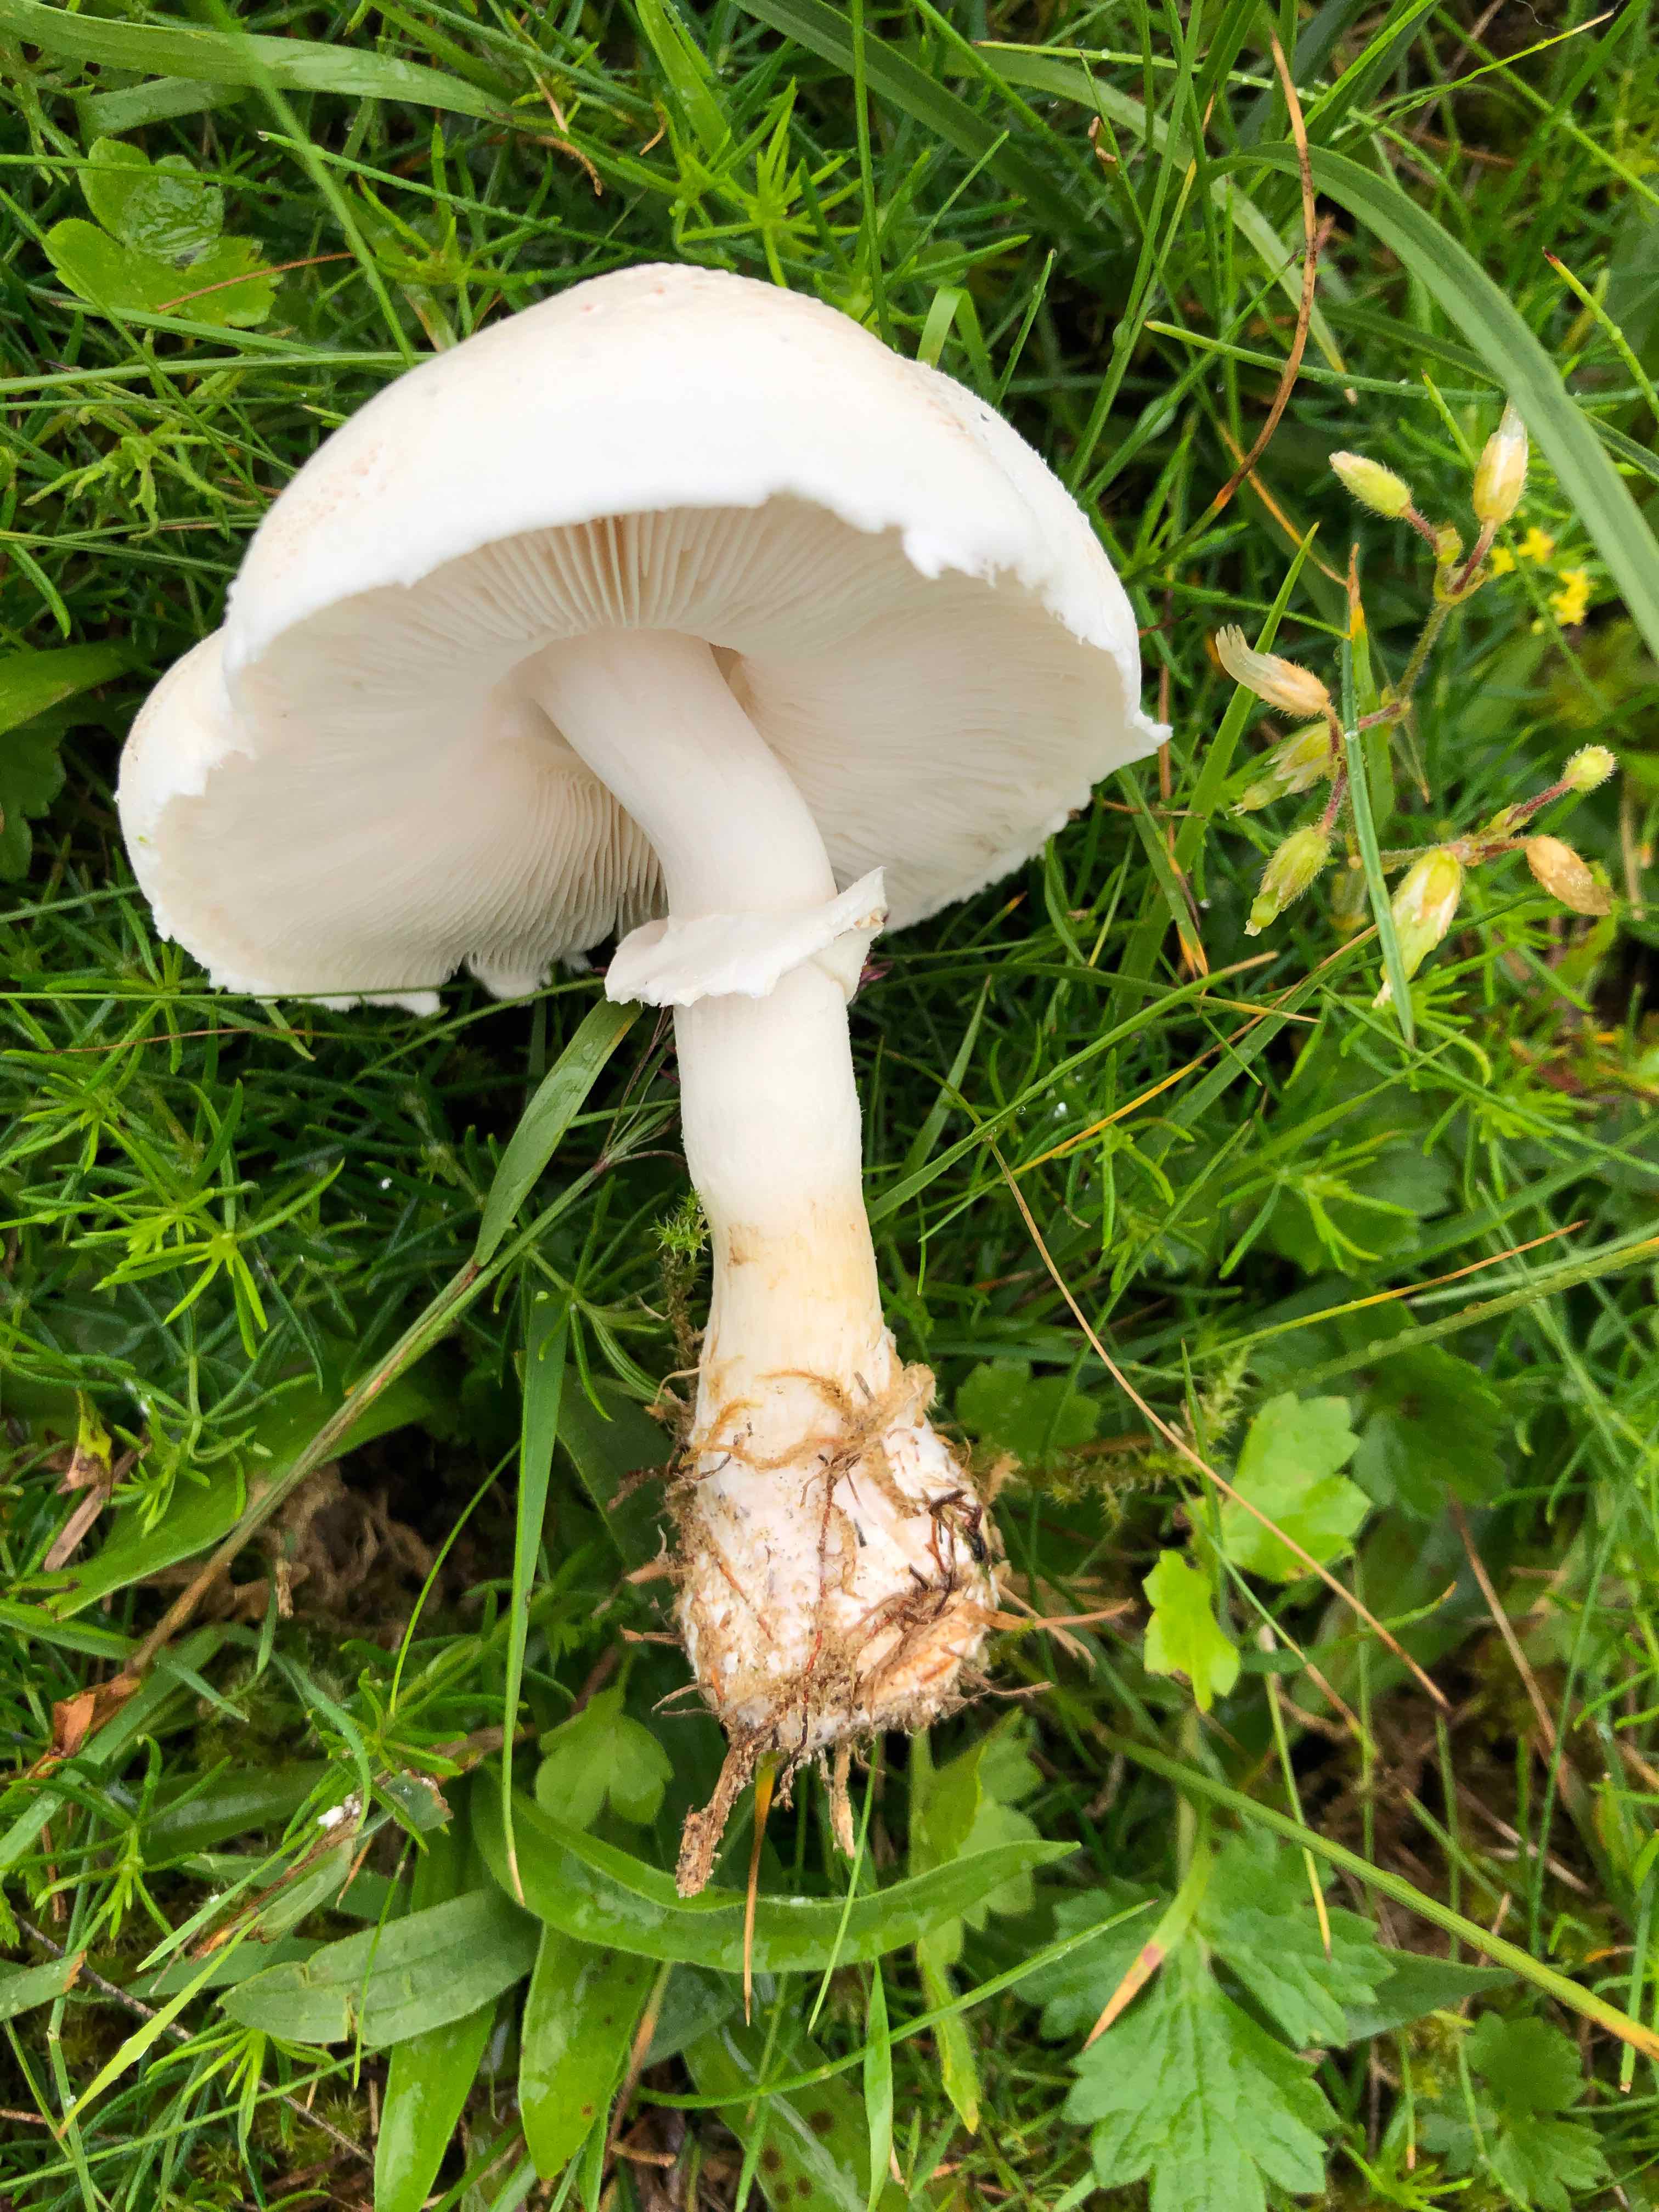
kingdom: Fungi
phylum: Basidiomycota
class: Agaricomycetes
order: Agaricales
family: Agaricaceae
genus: Leucoagaricus
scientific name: Leucoagaricus leucothites
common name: rosabladet silkehat
